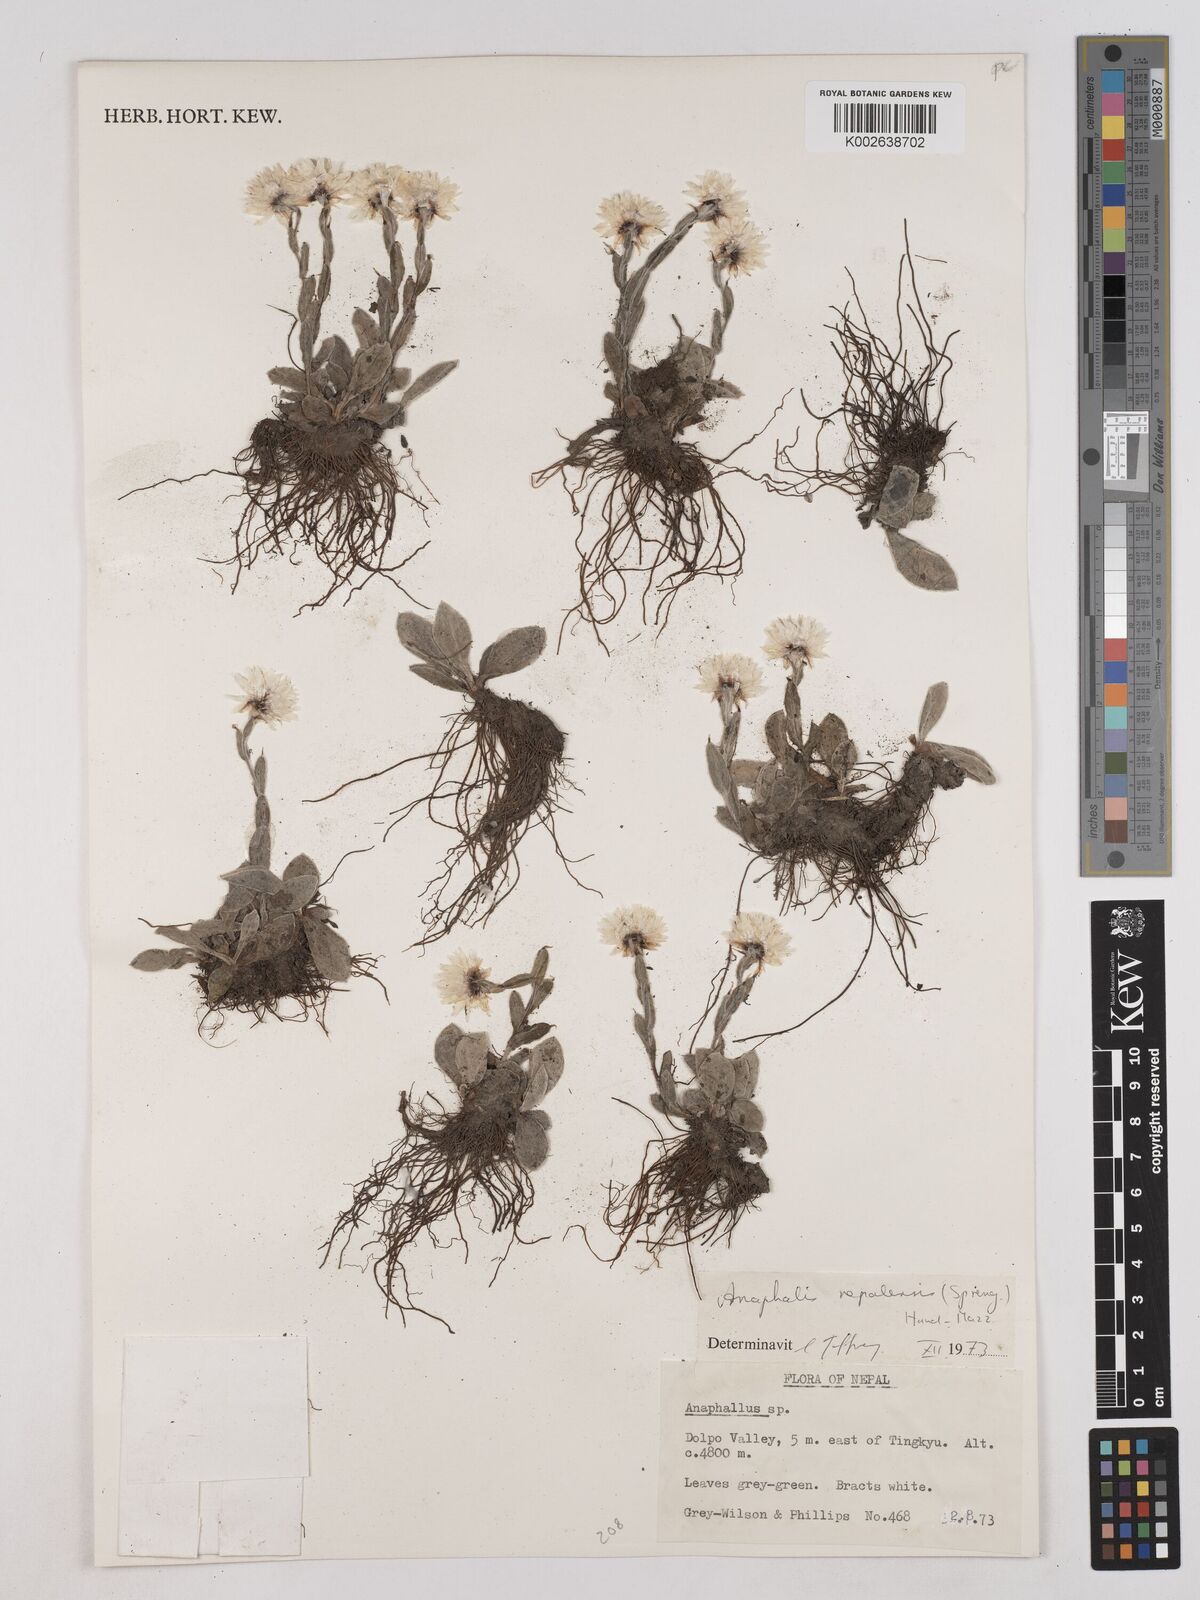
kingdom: Plantae
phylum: Tracheophyta
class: Magnoliopsida
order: Asterales
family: Asteraceae
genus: Anaphalis
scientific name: Anaphalis
